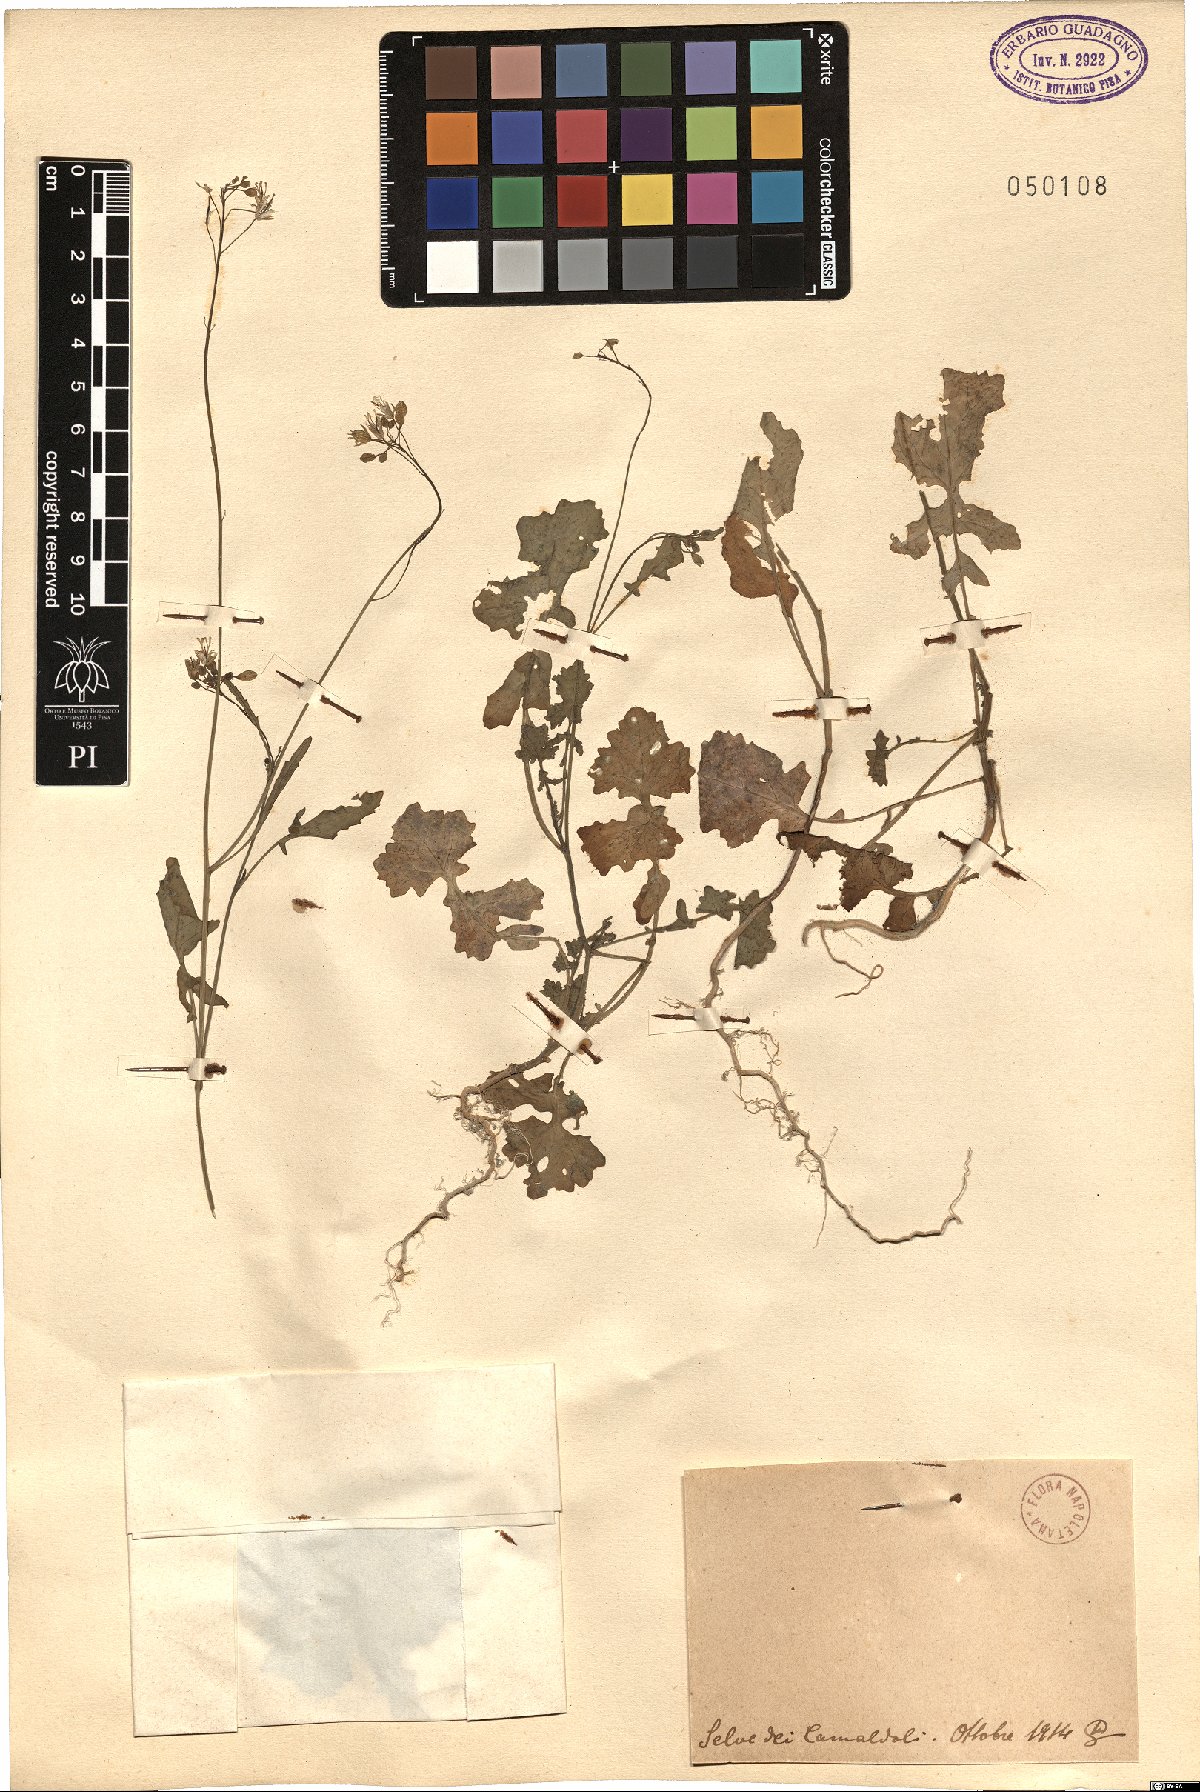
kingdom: Plantae
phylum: Tracheophyta
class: Magnoliopsida
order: Brassicales
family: Brassicaceae
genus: Brassica
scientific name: Brassica
